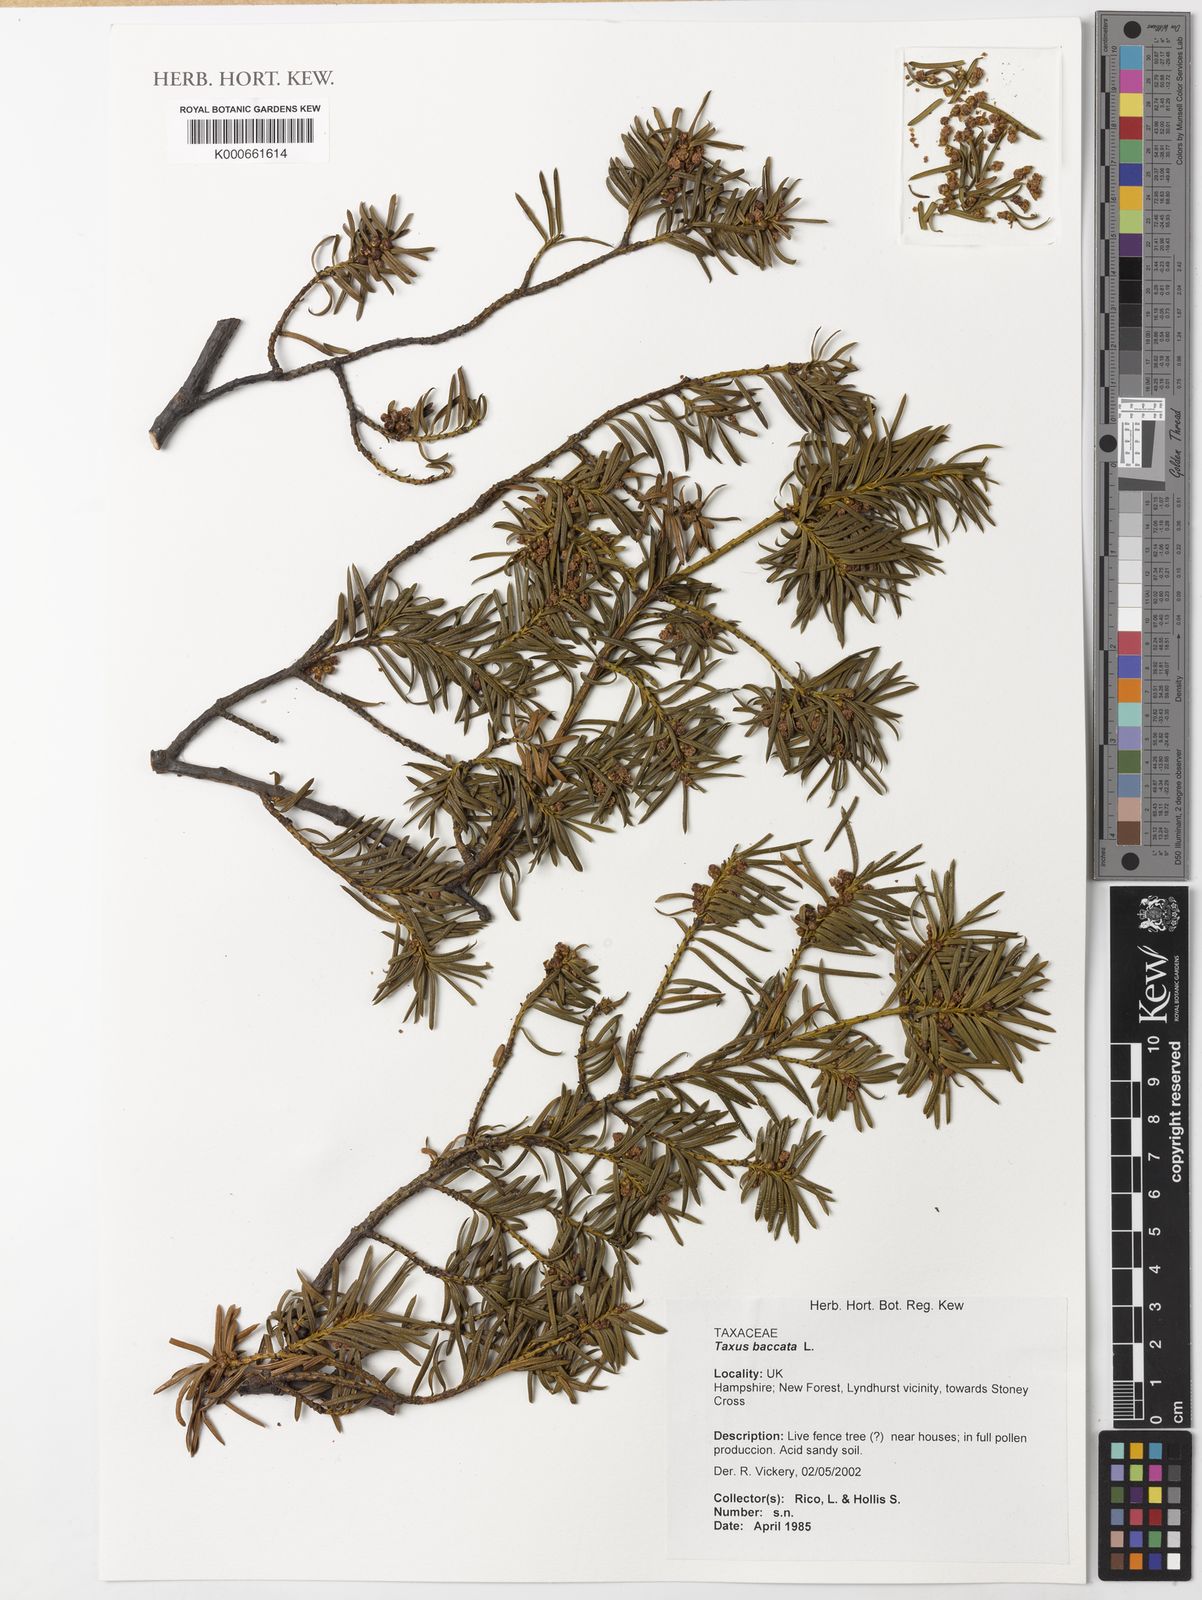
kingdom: Plantae
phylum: Tracheophyta
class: Pinopsida
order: Pinales
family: Taxaceae
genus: Taxus
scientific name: Taxus baccata
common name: Yew
